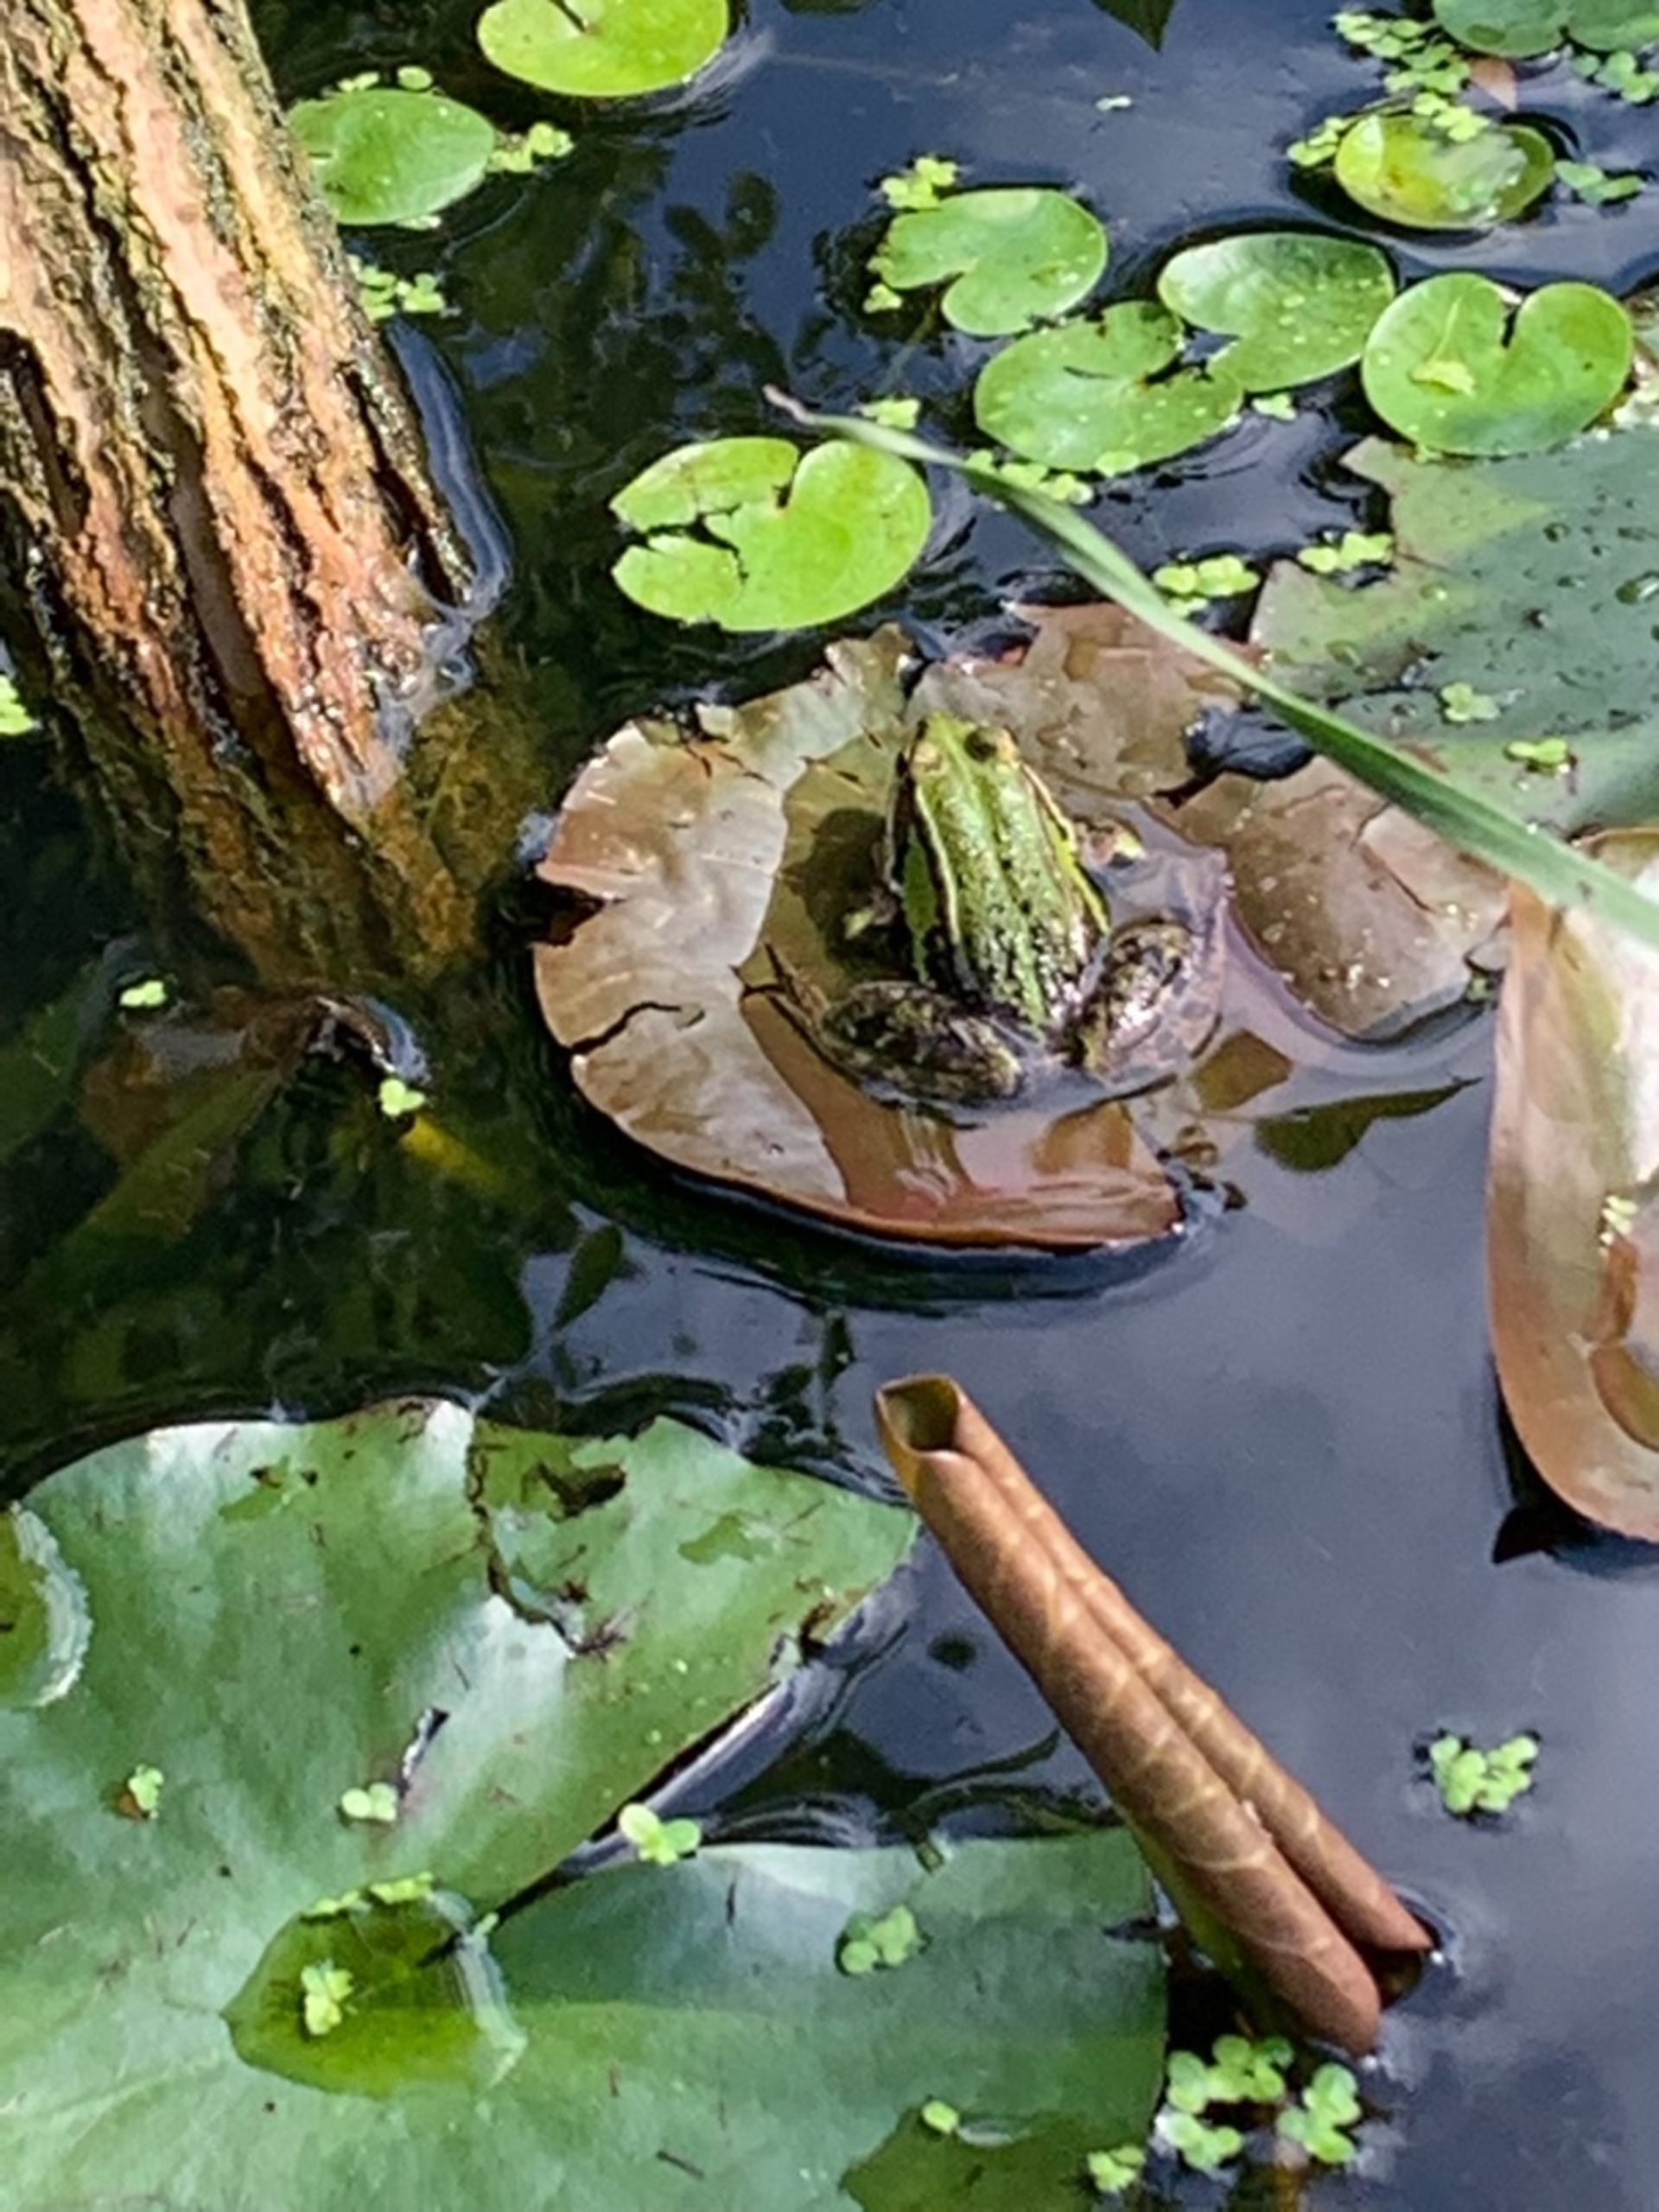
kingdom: Animalia
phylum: Chordata
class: Amphibia
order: Anura
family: Ranidae
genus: Pelophylax
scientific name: Pelophylax lessonae
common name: Grøn frø
